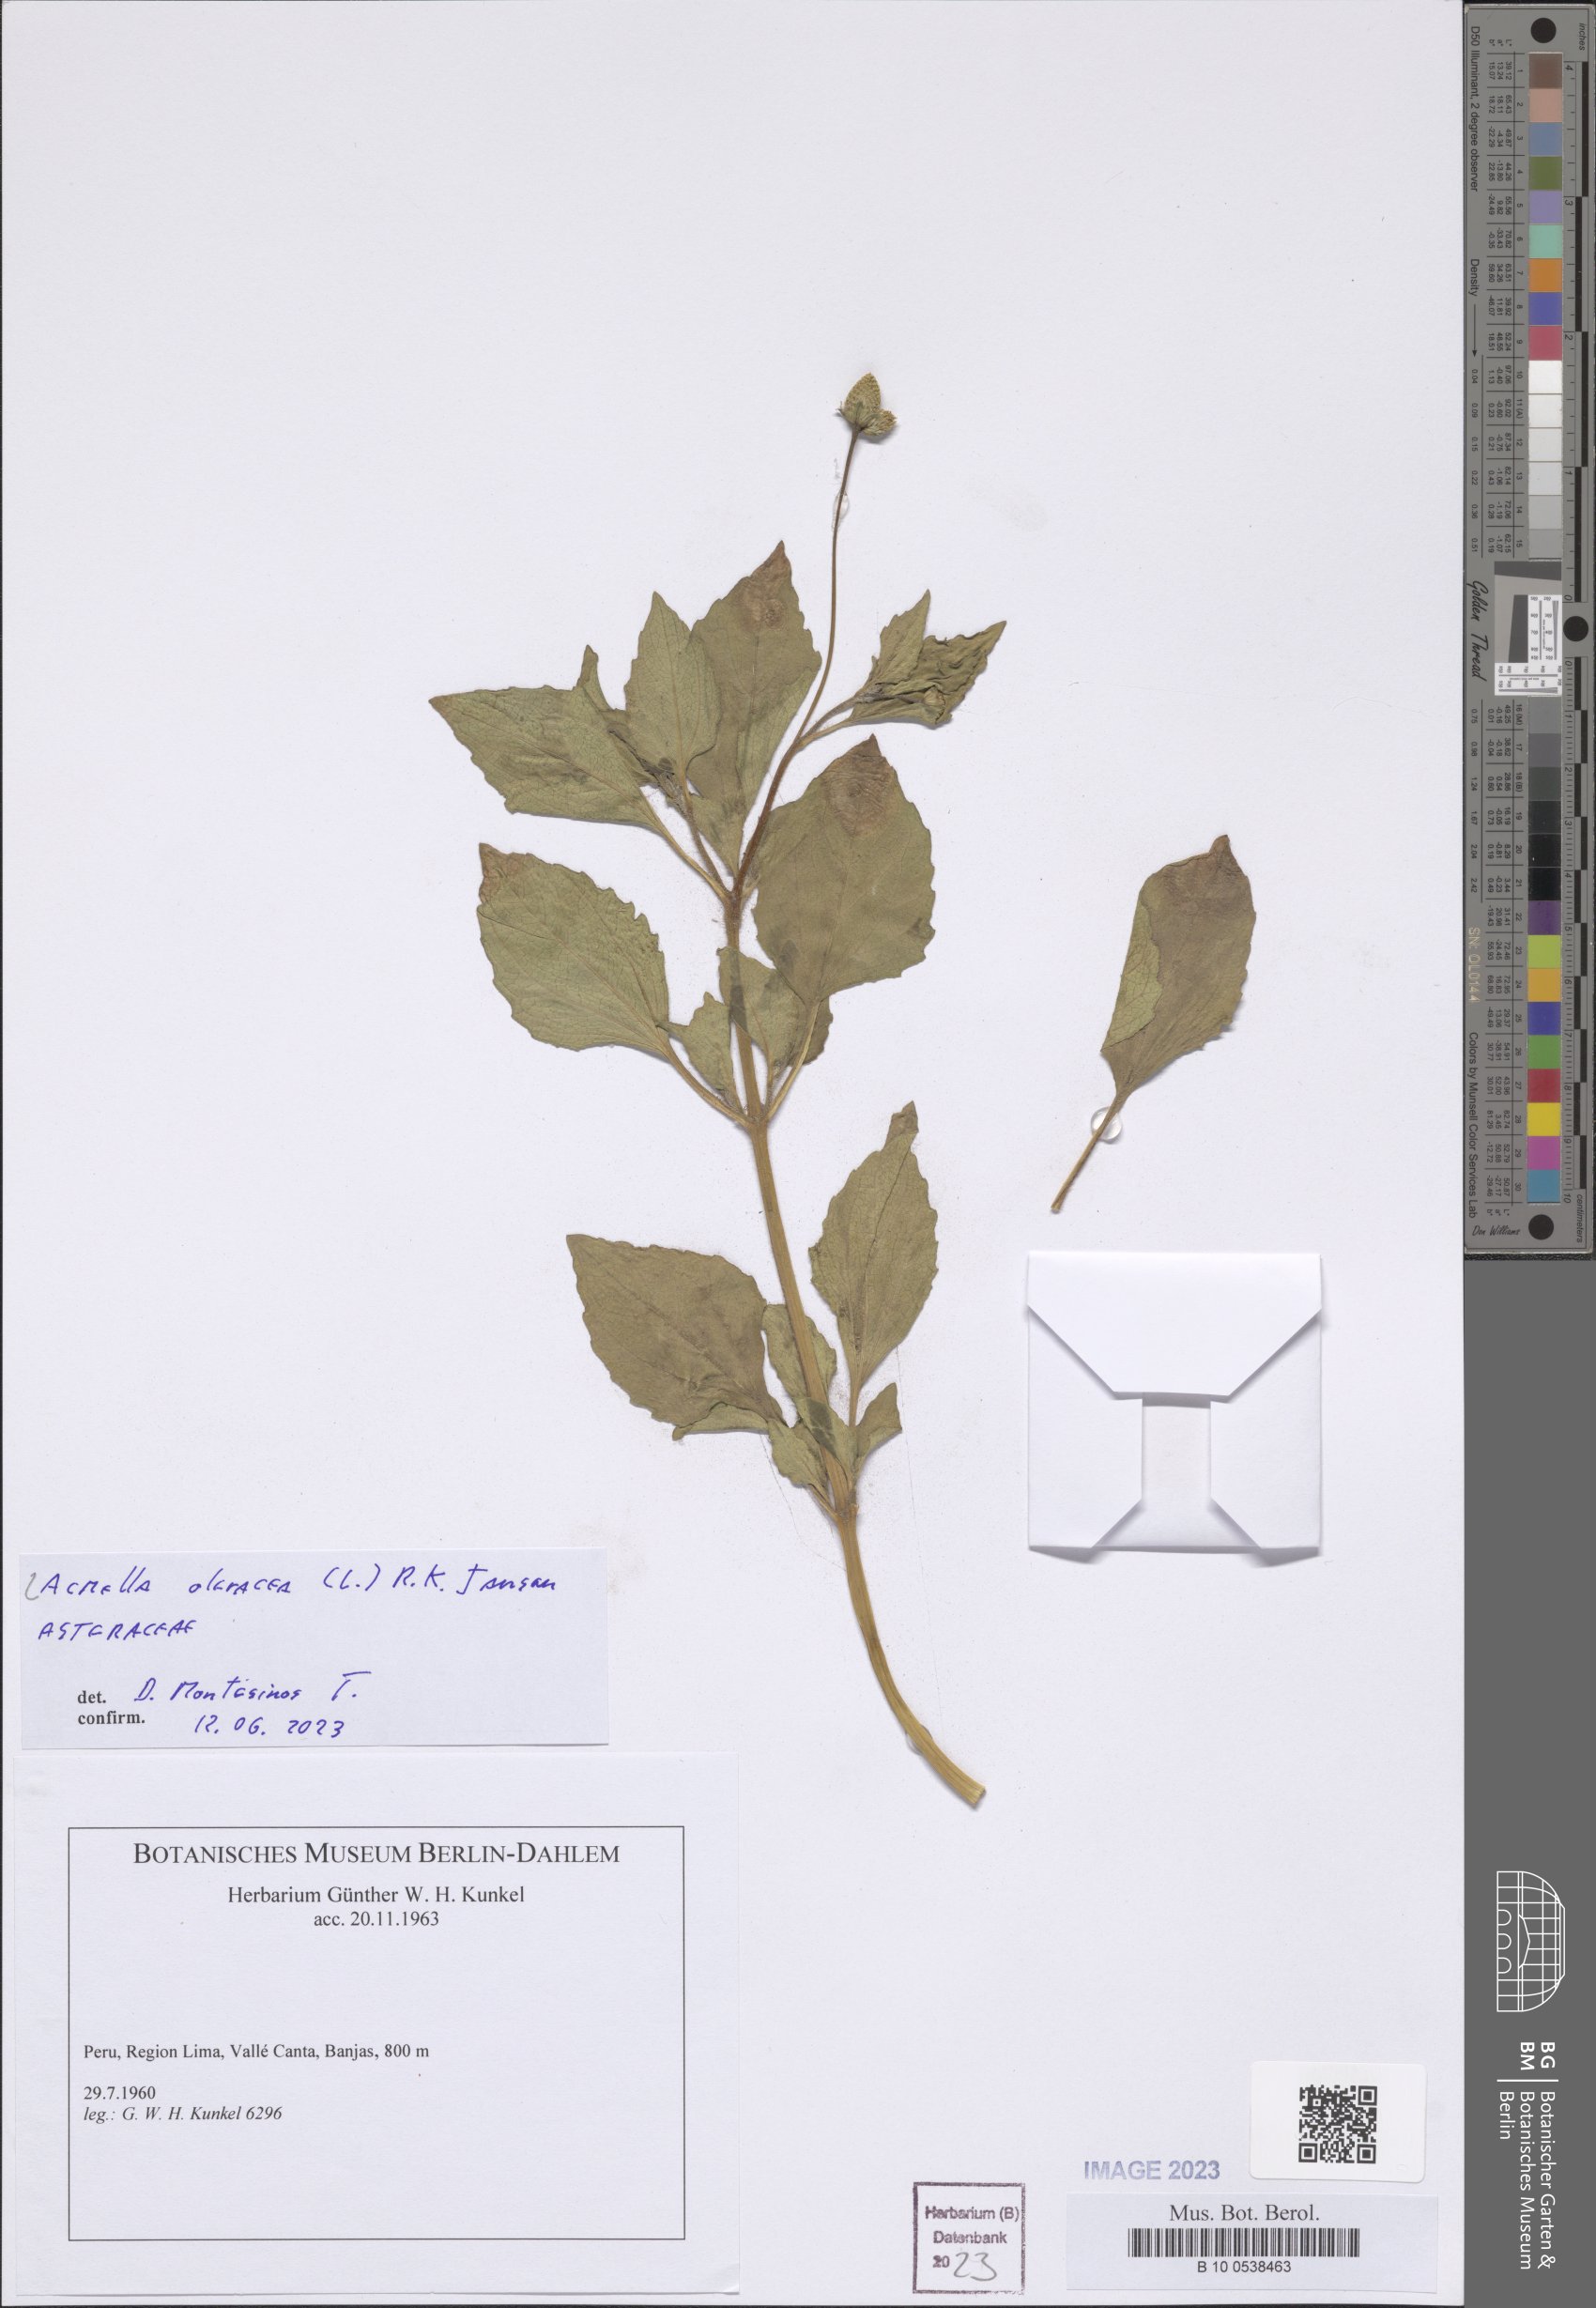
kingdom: Plantae
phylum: Tracheophyta
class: Magnoliopsida
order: Asterales
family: Asteraceae
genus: Acmella
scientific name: Acmella oleracea
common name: Brazilian cress
